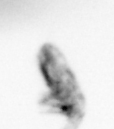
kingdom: Animalia
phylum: Arthropoda
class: Copepoda
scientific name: Copepoda
